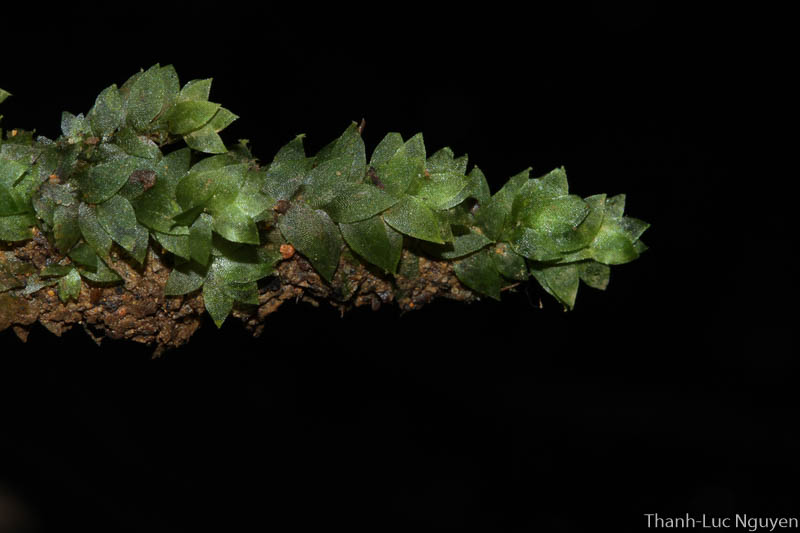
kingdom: Plantae
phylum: Bryophyta
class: Bryopsida
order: Hookeriales
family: Hookeriaceae
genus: Hookeria
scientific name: Hookeria
